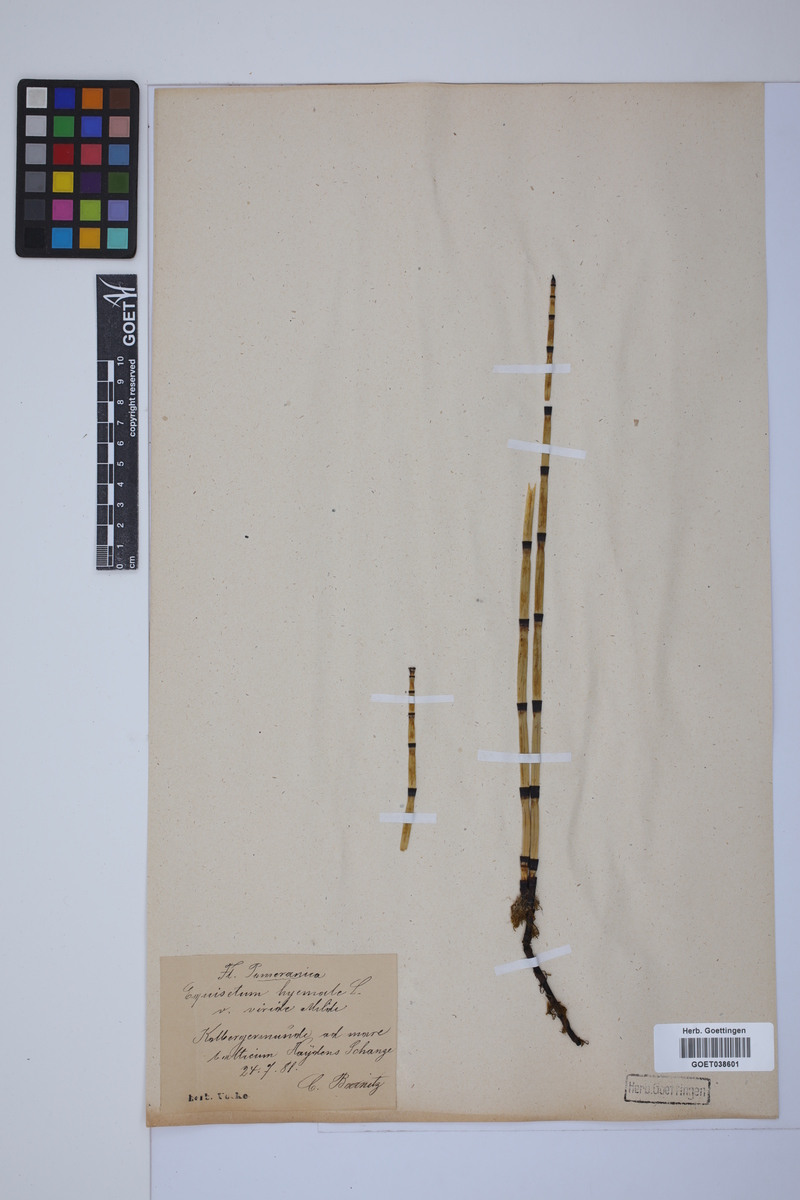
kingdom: Plantae
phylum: Tracheophyta
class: Polypodiopsida
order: Equisetales
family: Equisetaceae
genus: Equisetum
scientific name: Equisetum hyemale
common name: Rough horsetail
